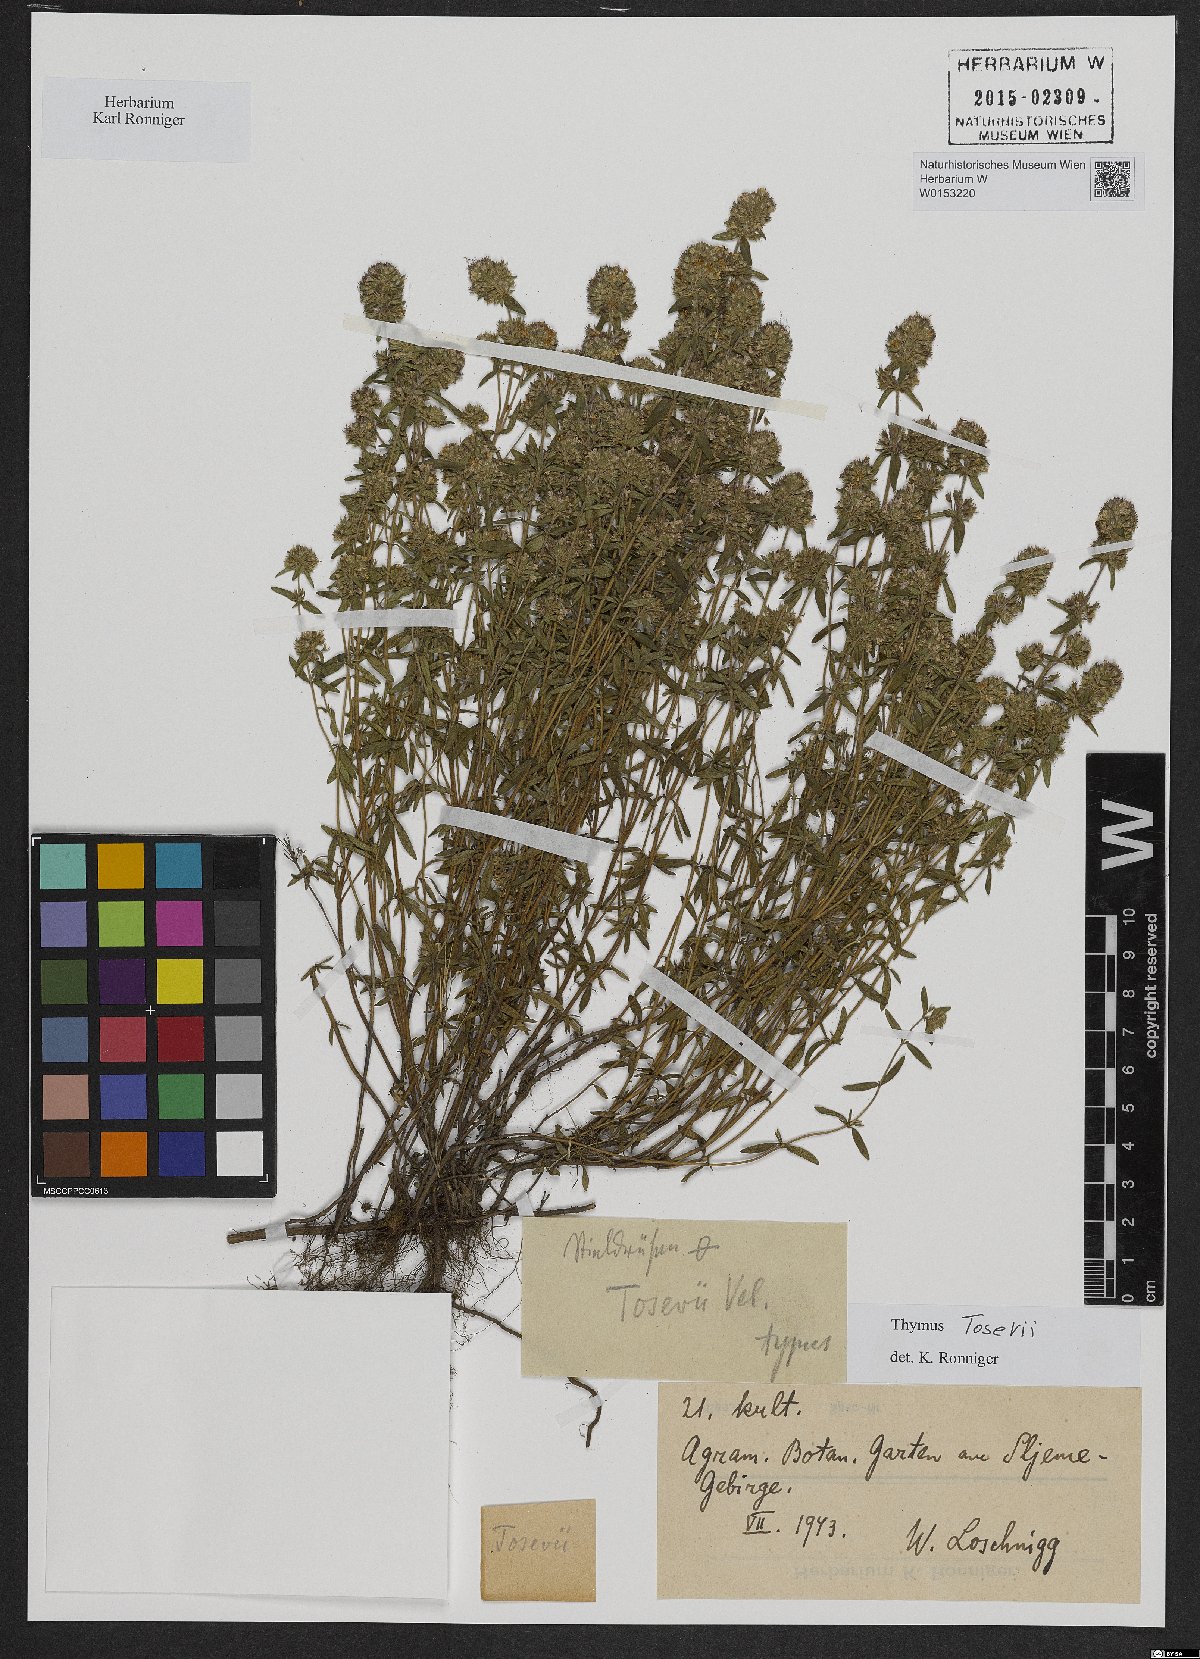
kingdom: Plantae
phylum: Tracheophyta
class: Magnoliopsida
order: Lamiales
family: Lamiaceae
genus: Thymus
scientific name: Thymus sibthorpii
